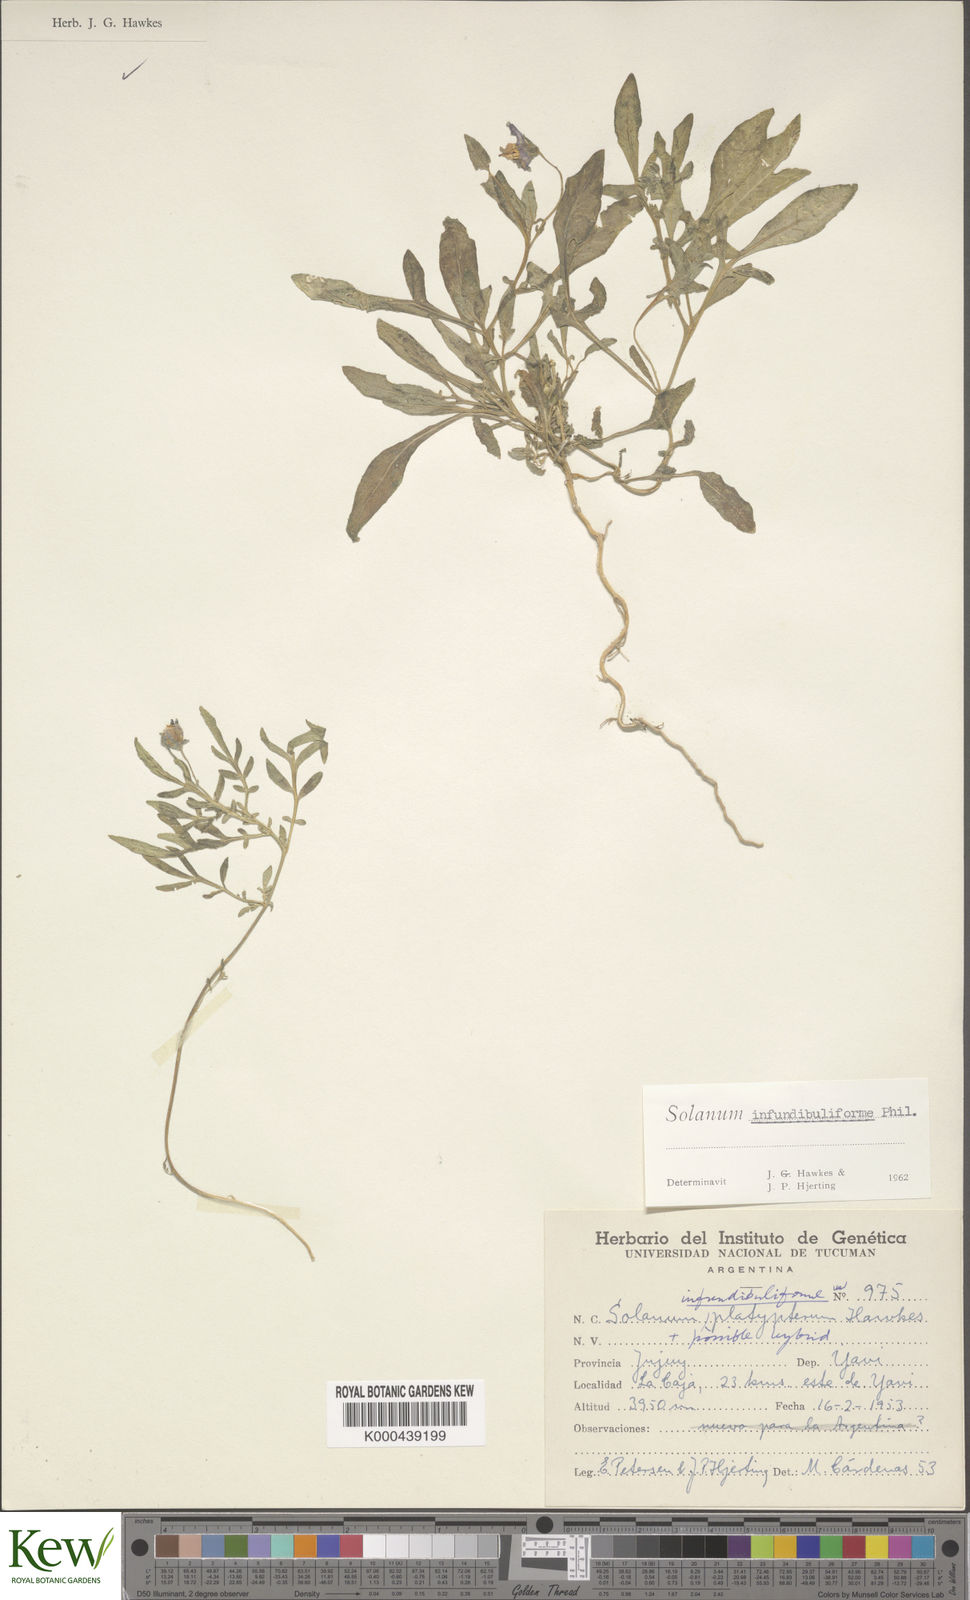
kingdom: Plantae
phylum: Tracheophyta
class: Magnoliopsida
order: Solanales
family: Solanaceae
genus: Solanum
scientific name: Solanum infundibuliforme
